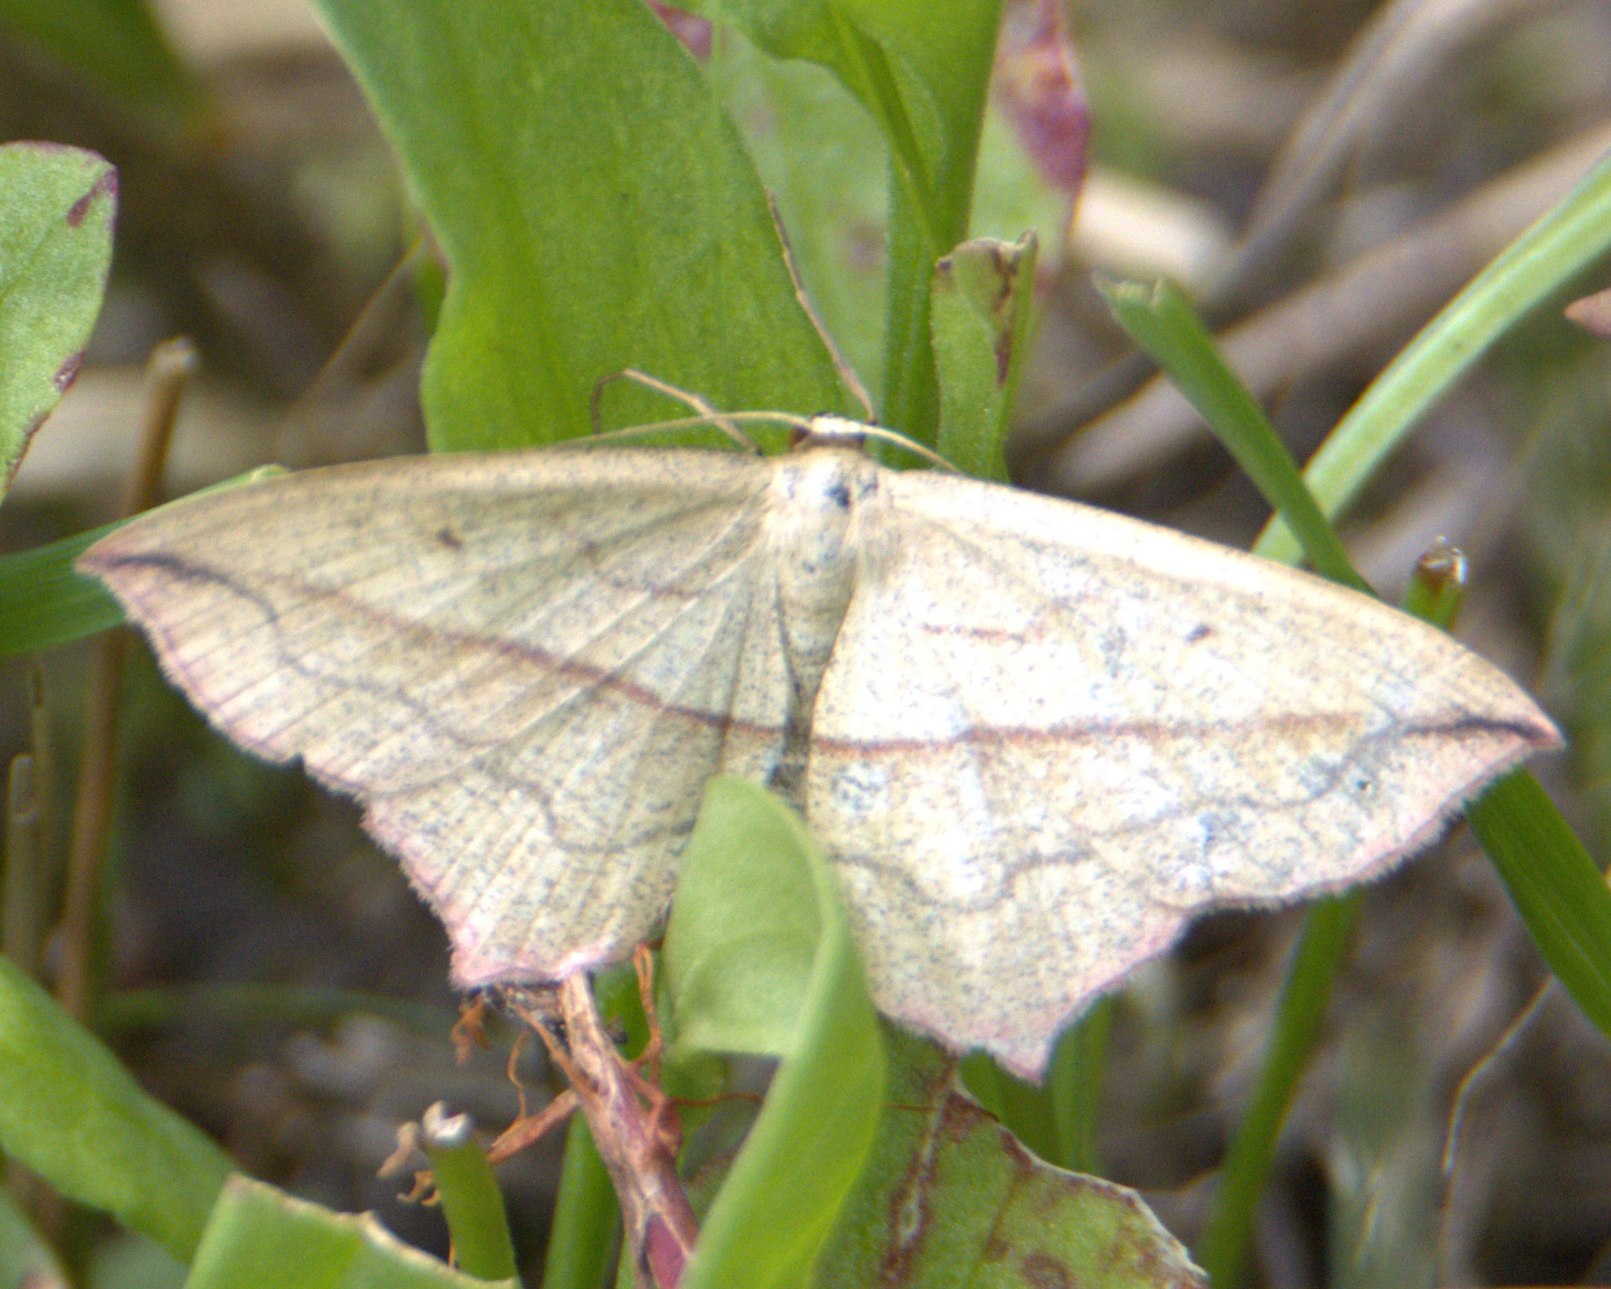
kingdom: Animalia
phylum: Arthropoda
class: Insecta
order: Lepidoptera
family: Geometridae
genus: Timandra
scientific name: Timandra comae
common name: Gul syremåler
